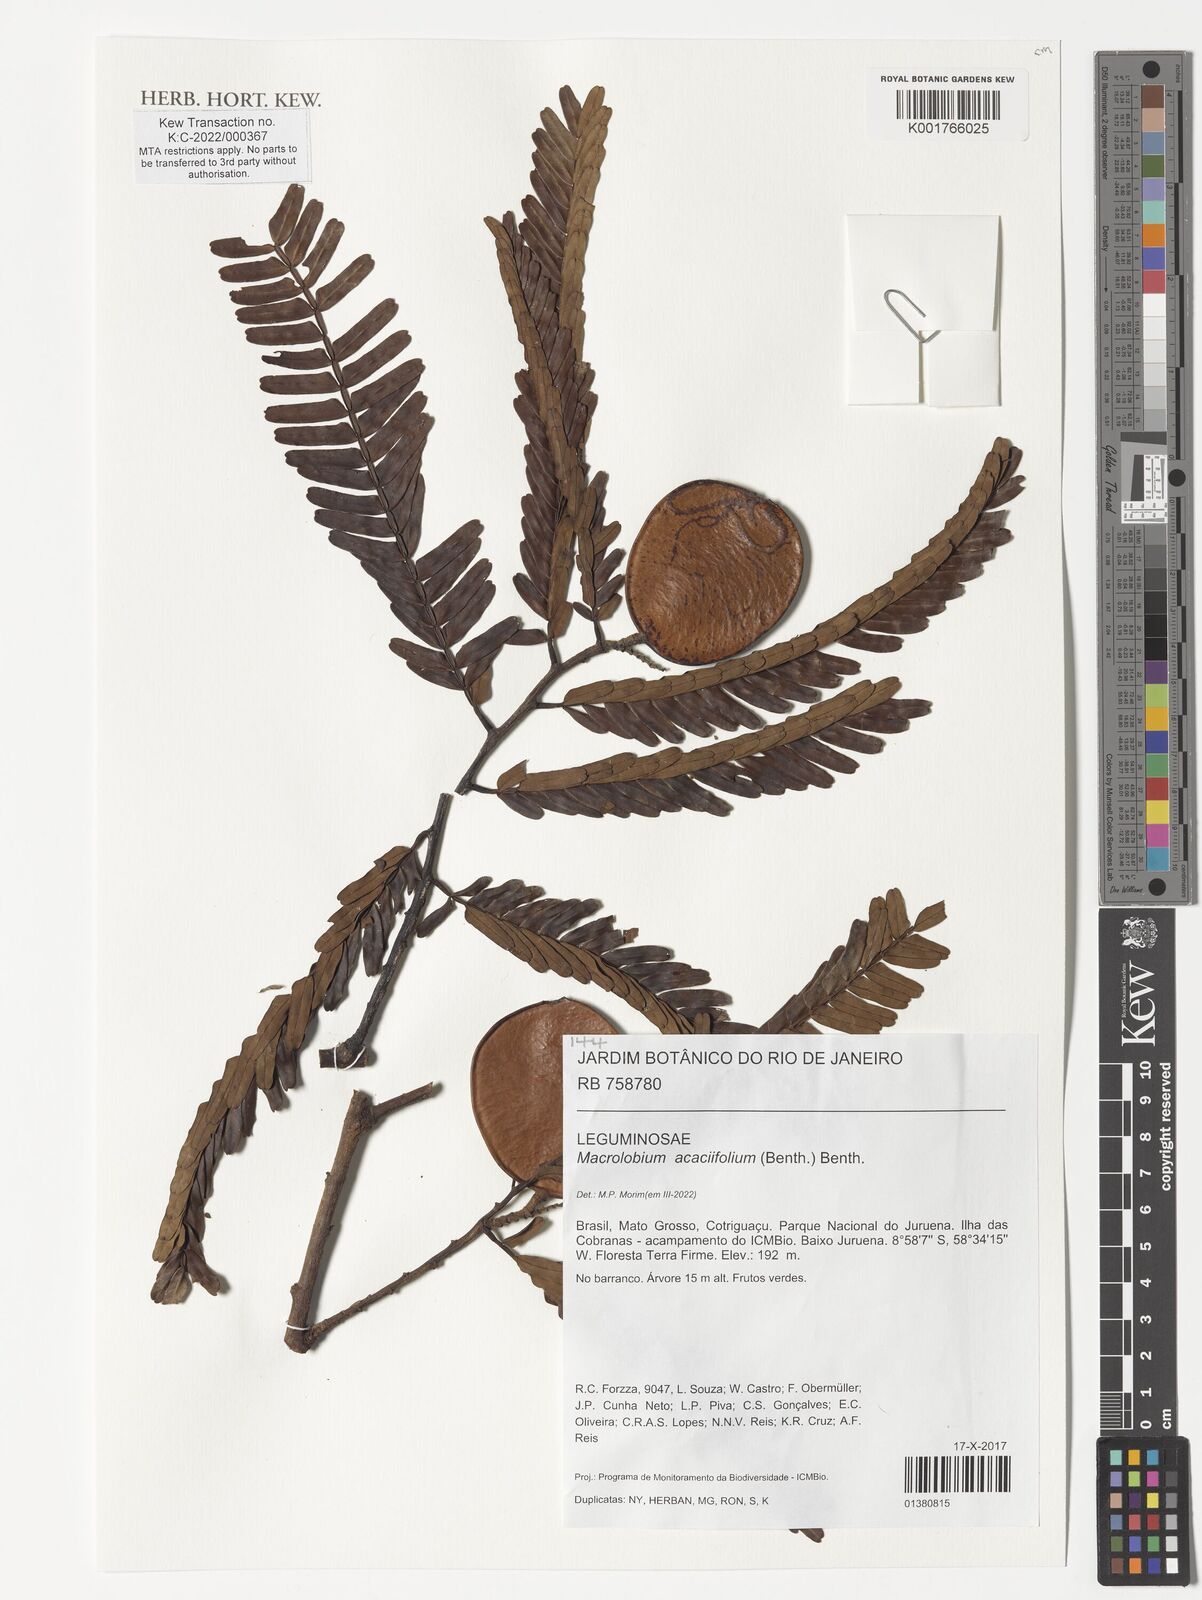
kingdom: Plantae
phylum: Tracheophyta
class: Magnoliopsida
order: Fabales
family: Fabaceae
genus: Macrolobium
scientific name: Macrolobium acaciifolium
